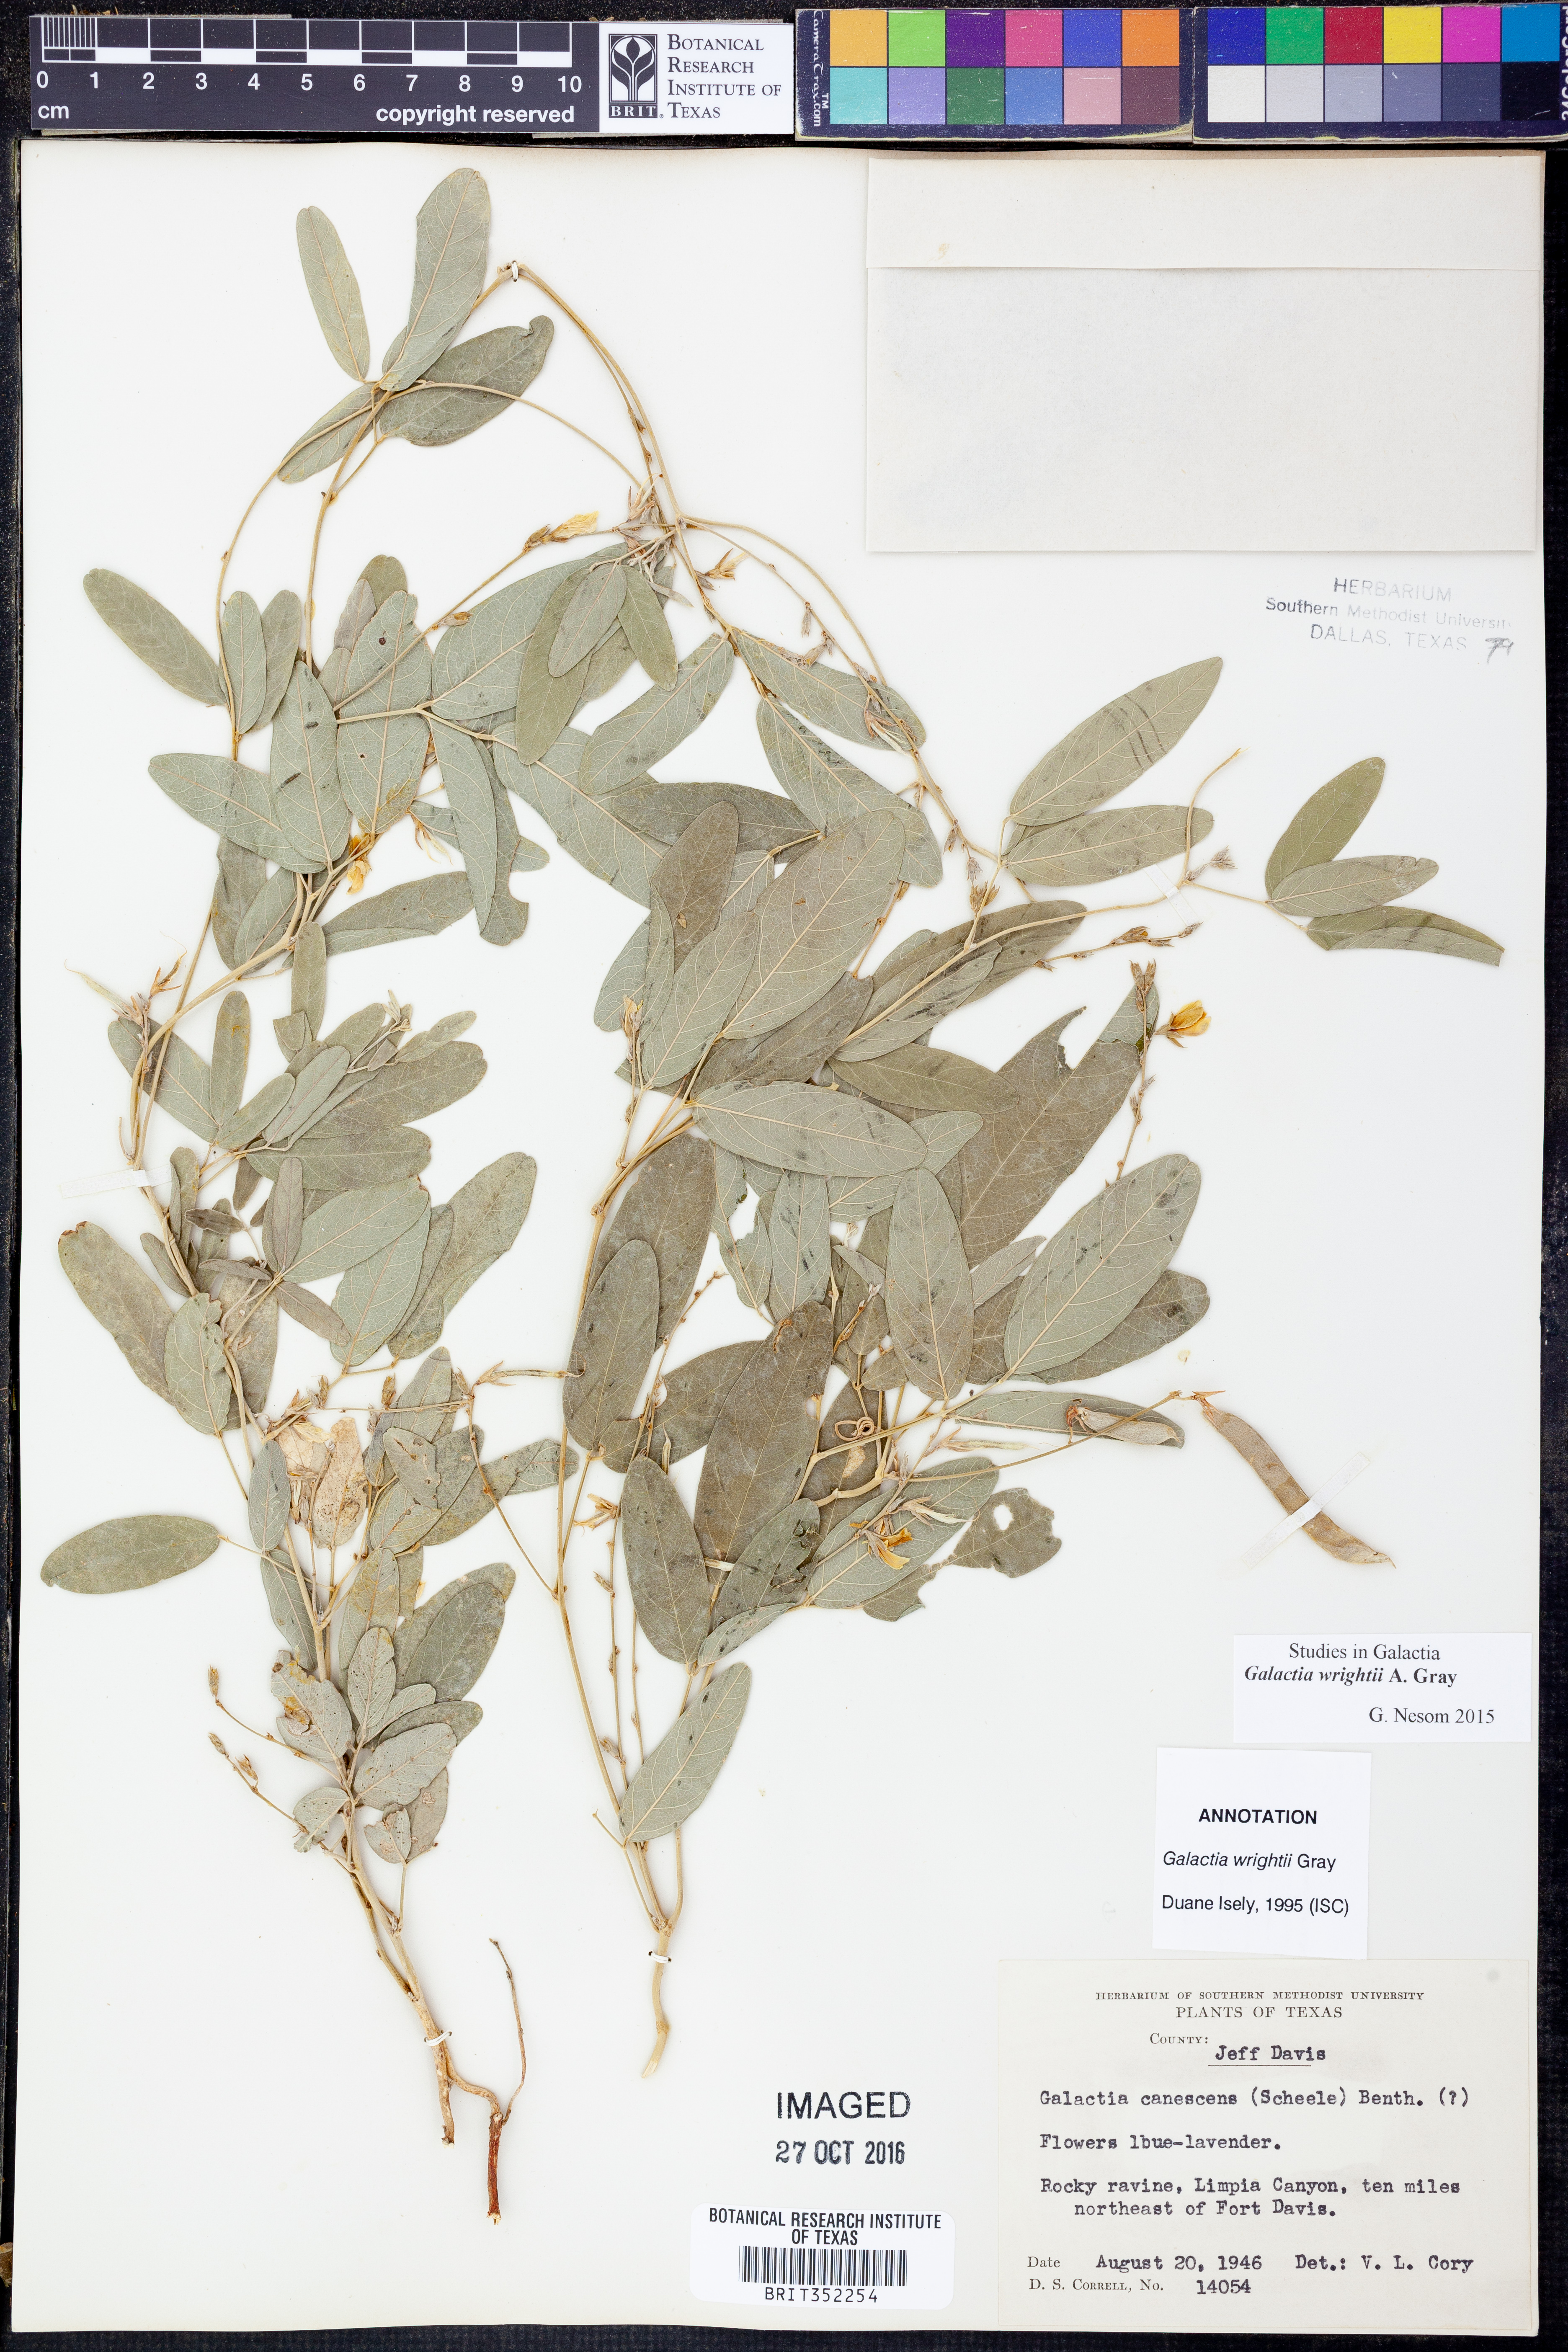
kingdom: Plantae
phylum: Tracheophyta
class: Magnoliopsida
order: Fabales
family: Fabaceae
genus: Galactia
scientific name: Galactia wrightii
